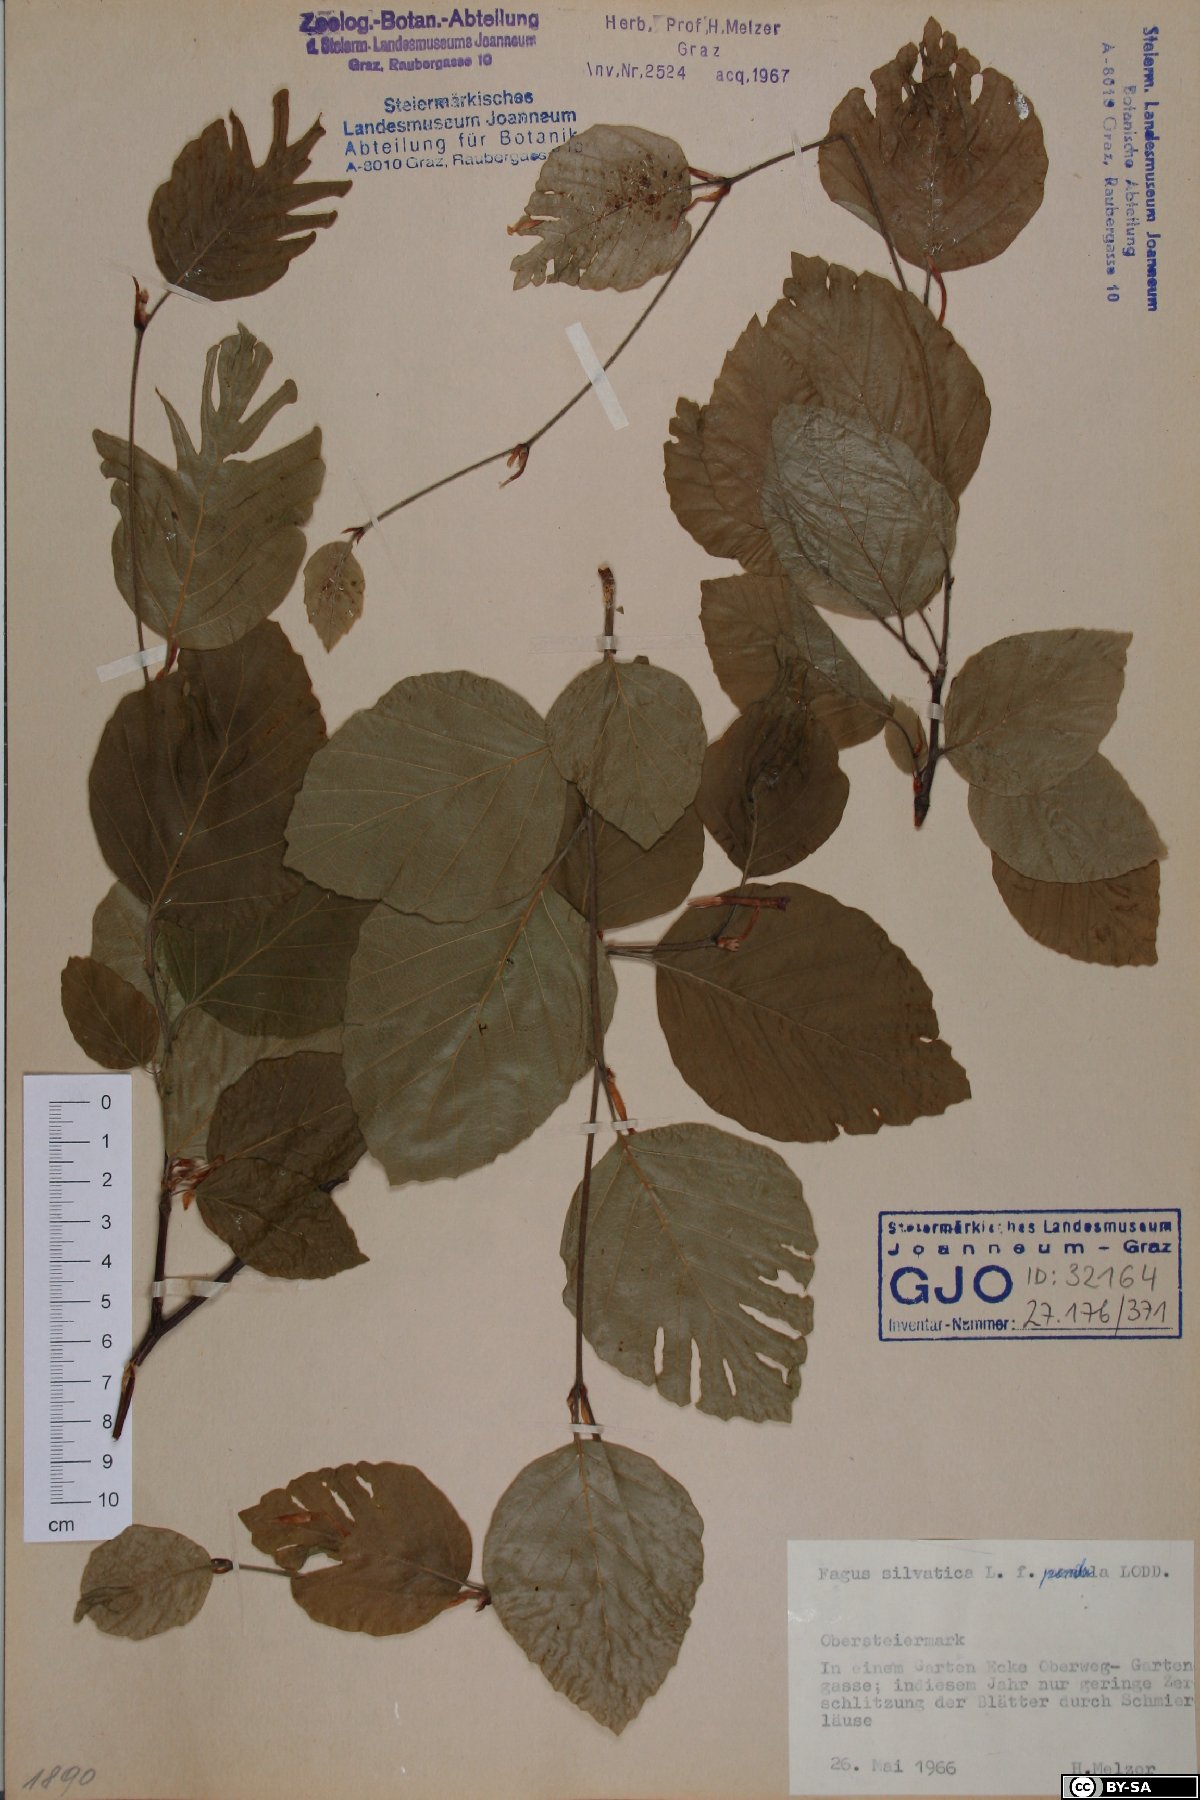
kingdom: Plantae
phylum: Tracheophyta
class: Magnoliopsida
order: Fagales
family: Fagaceae
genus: Fagus
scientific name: Fagus sylvatica
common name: Beech
